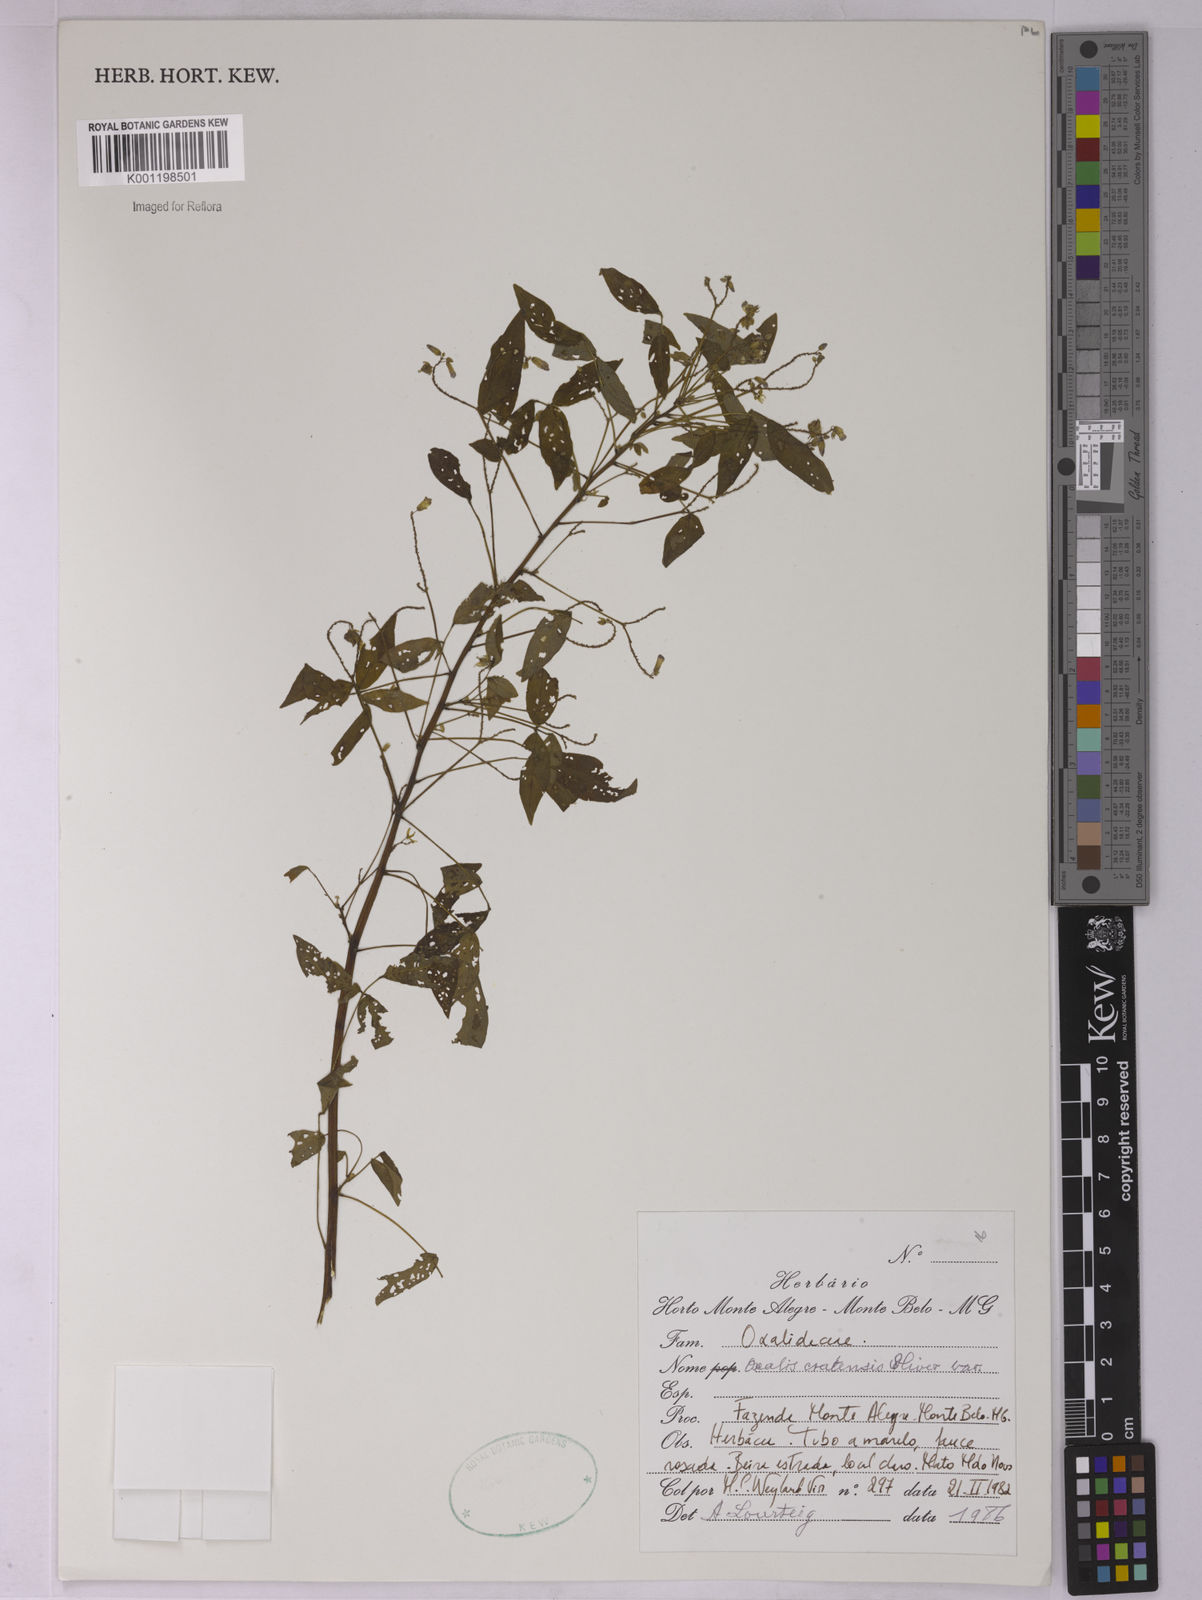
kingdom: Plantae
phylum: Tracheophyta
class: Magnoliopsida
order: Oxalidales
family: Oxalidaceae
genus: Oxalis
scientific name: Oxalis cratensis
